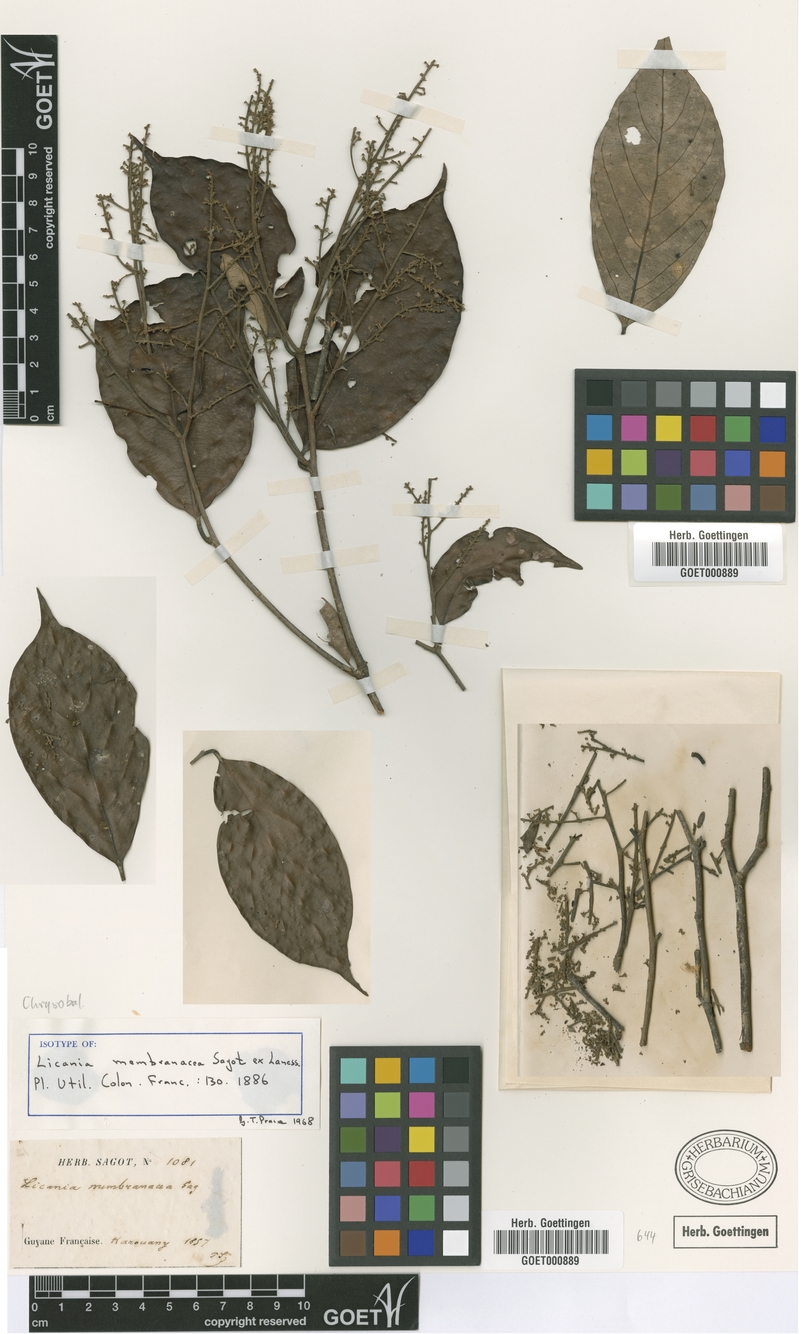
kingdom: Plantae
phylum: Tracheophyta
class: Magnoliopsida
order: Malpighiales
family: Chrysobalanaceae
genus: Licania
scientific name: Licania membranacea
